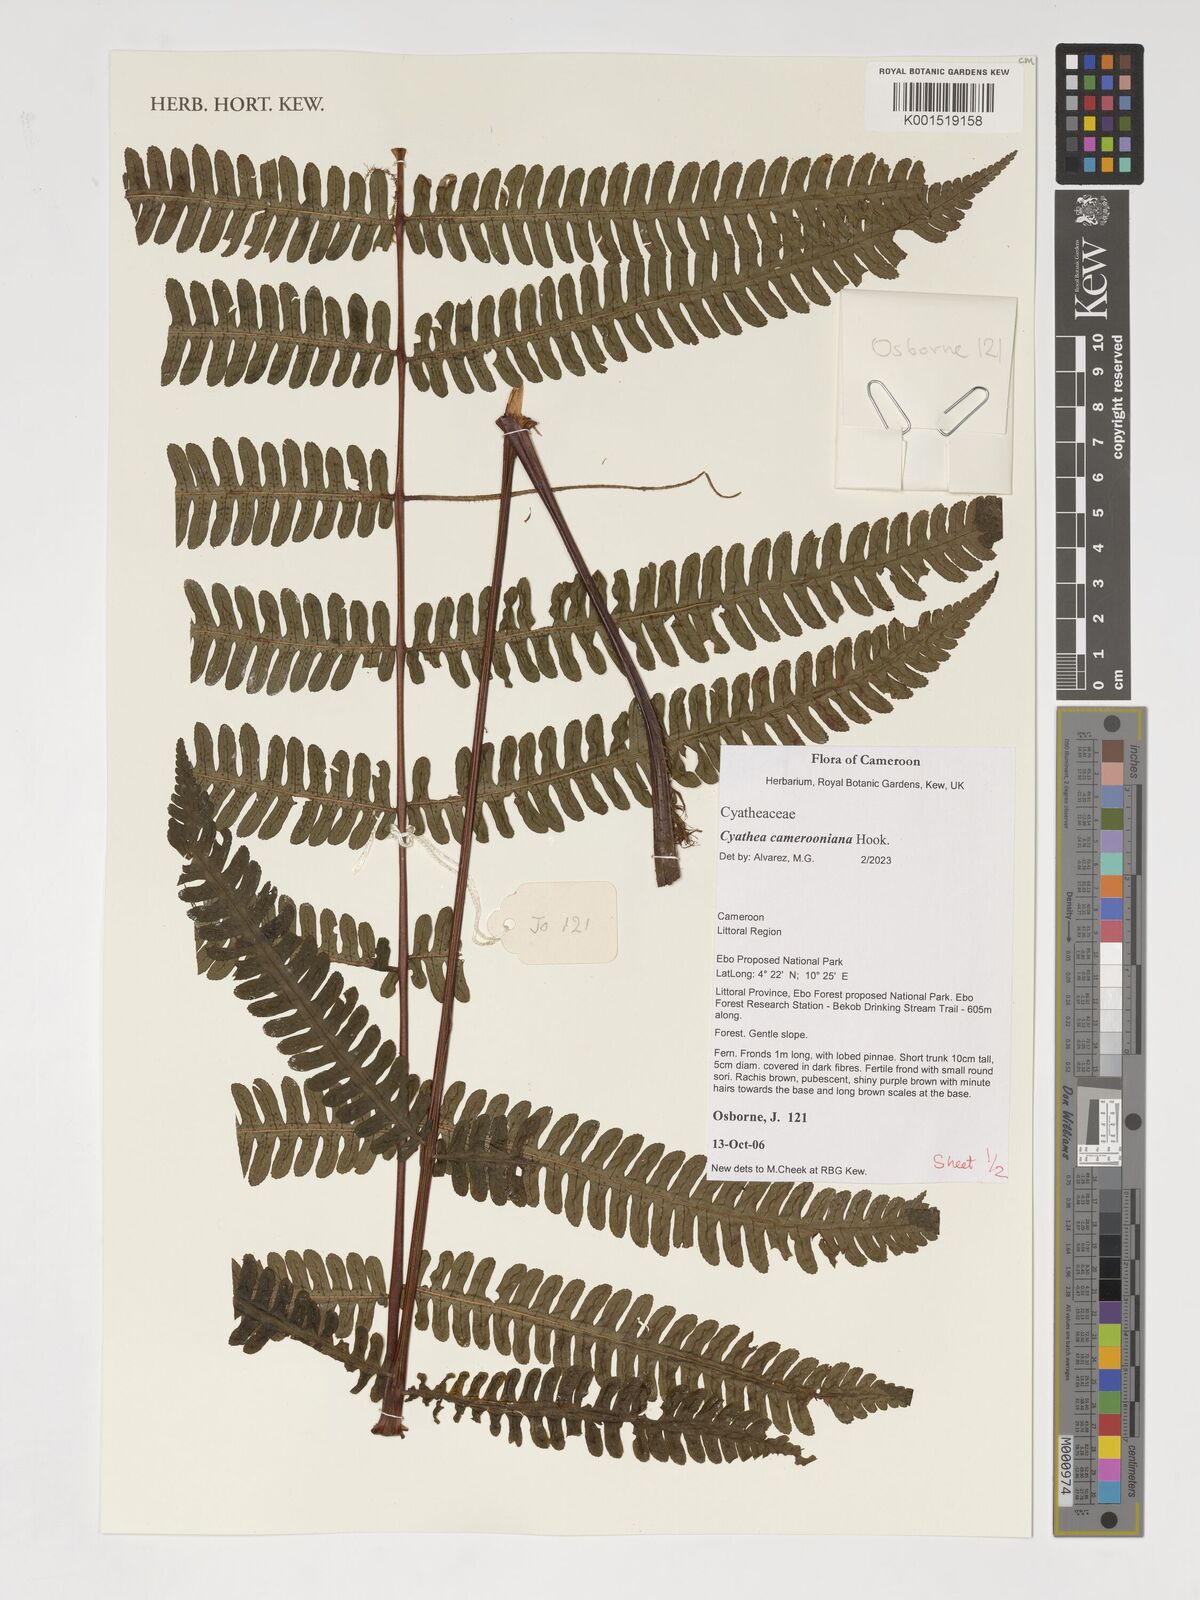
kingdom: Plantae
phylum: Tracheophyta
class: Polypodiopsida
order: Cyatheales
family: Cyatheaceae
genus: Alsophila
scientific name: Alsophila camerooniana
